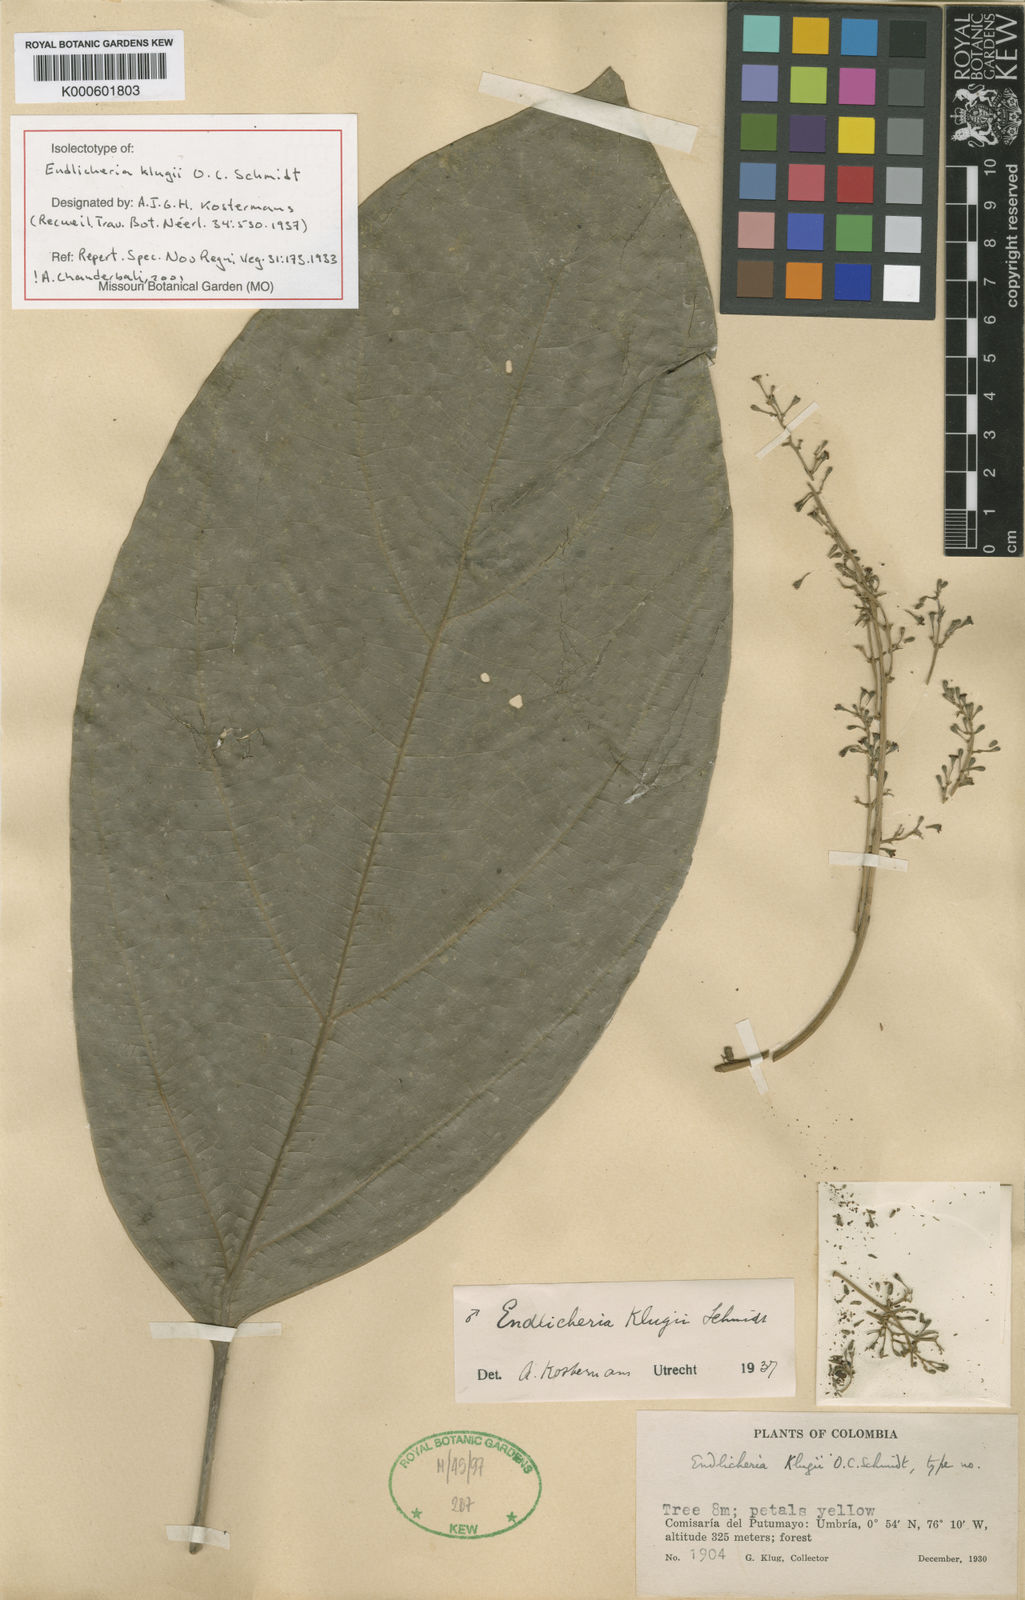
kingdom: Plantae
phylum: Tracheophyta
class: Magnoliopsida
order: Laurales
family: Lauraceae
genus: Endlicheria
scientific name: Endlicheria klugii
